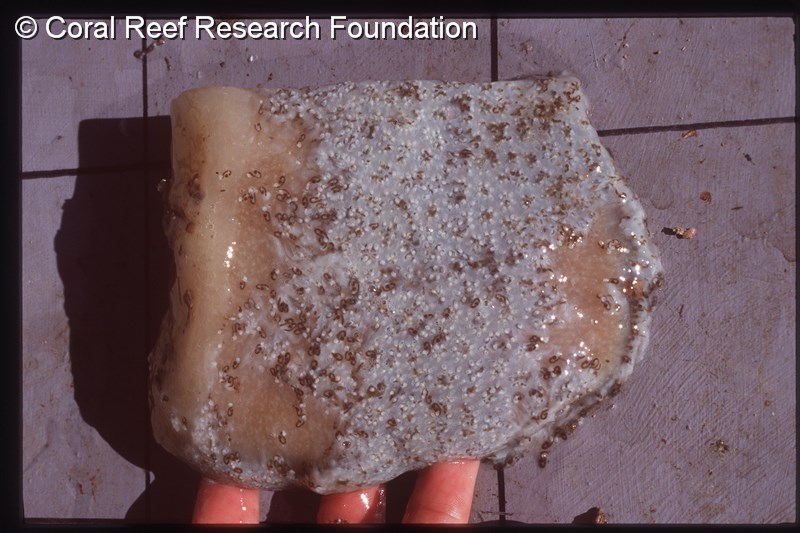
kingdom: Animalia
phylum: Chordata
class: Ascidiacea
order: Aplousobranchia
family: Holozoidae
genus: Distaplia
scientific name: Distaplia skoogi
